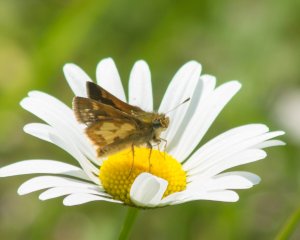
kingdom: Animalia
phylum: Arthropoda
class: Insecta
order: Lepidoptera
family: Hesperiidae
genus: Polites
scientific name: Polites coras
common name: Peck's Skipper
